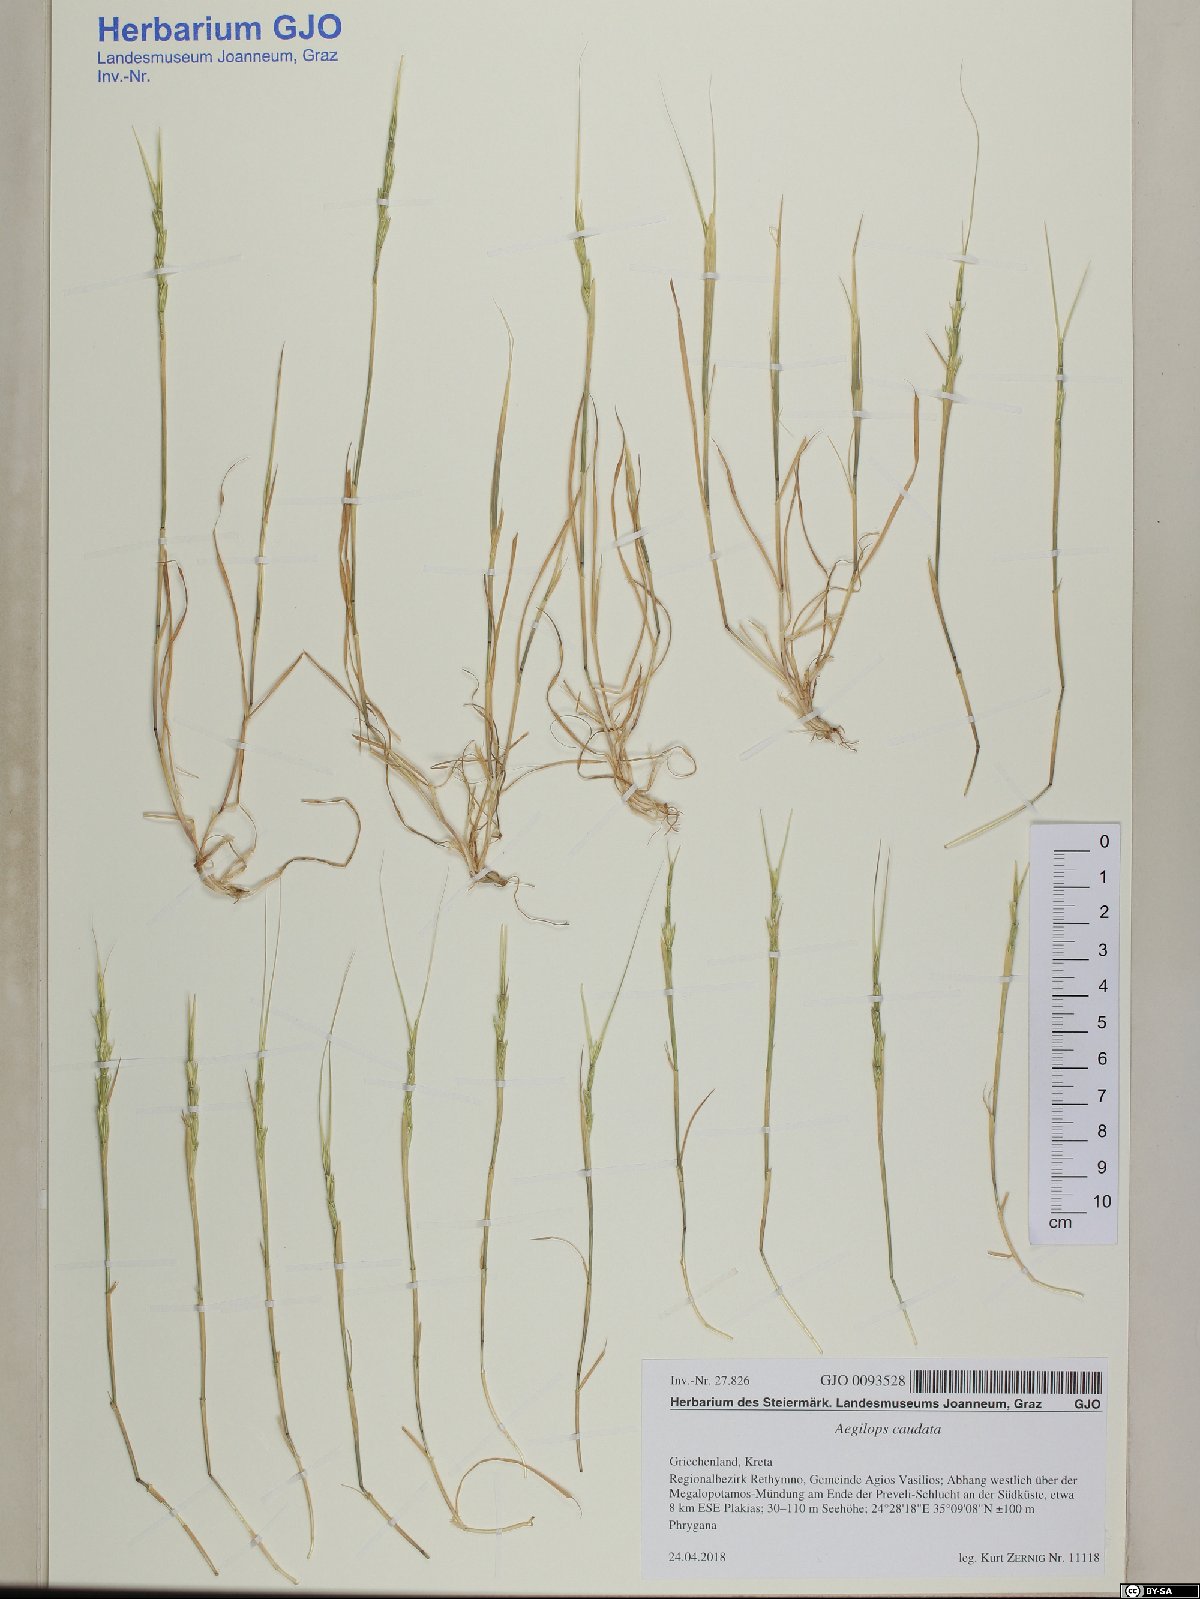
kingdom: Plantae
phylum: Tracheophyta
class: Liliopsida
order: Poales
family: Poaceae
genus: Aegilops
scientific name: Aegilops caudata
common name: Cretan hard-grass
